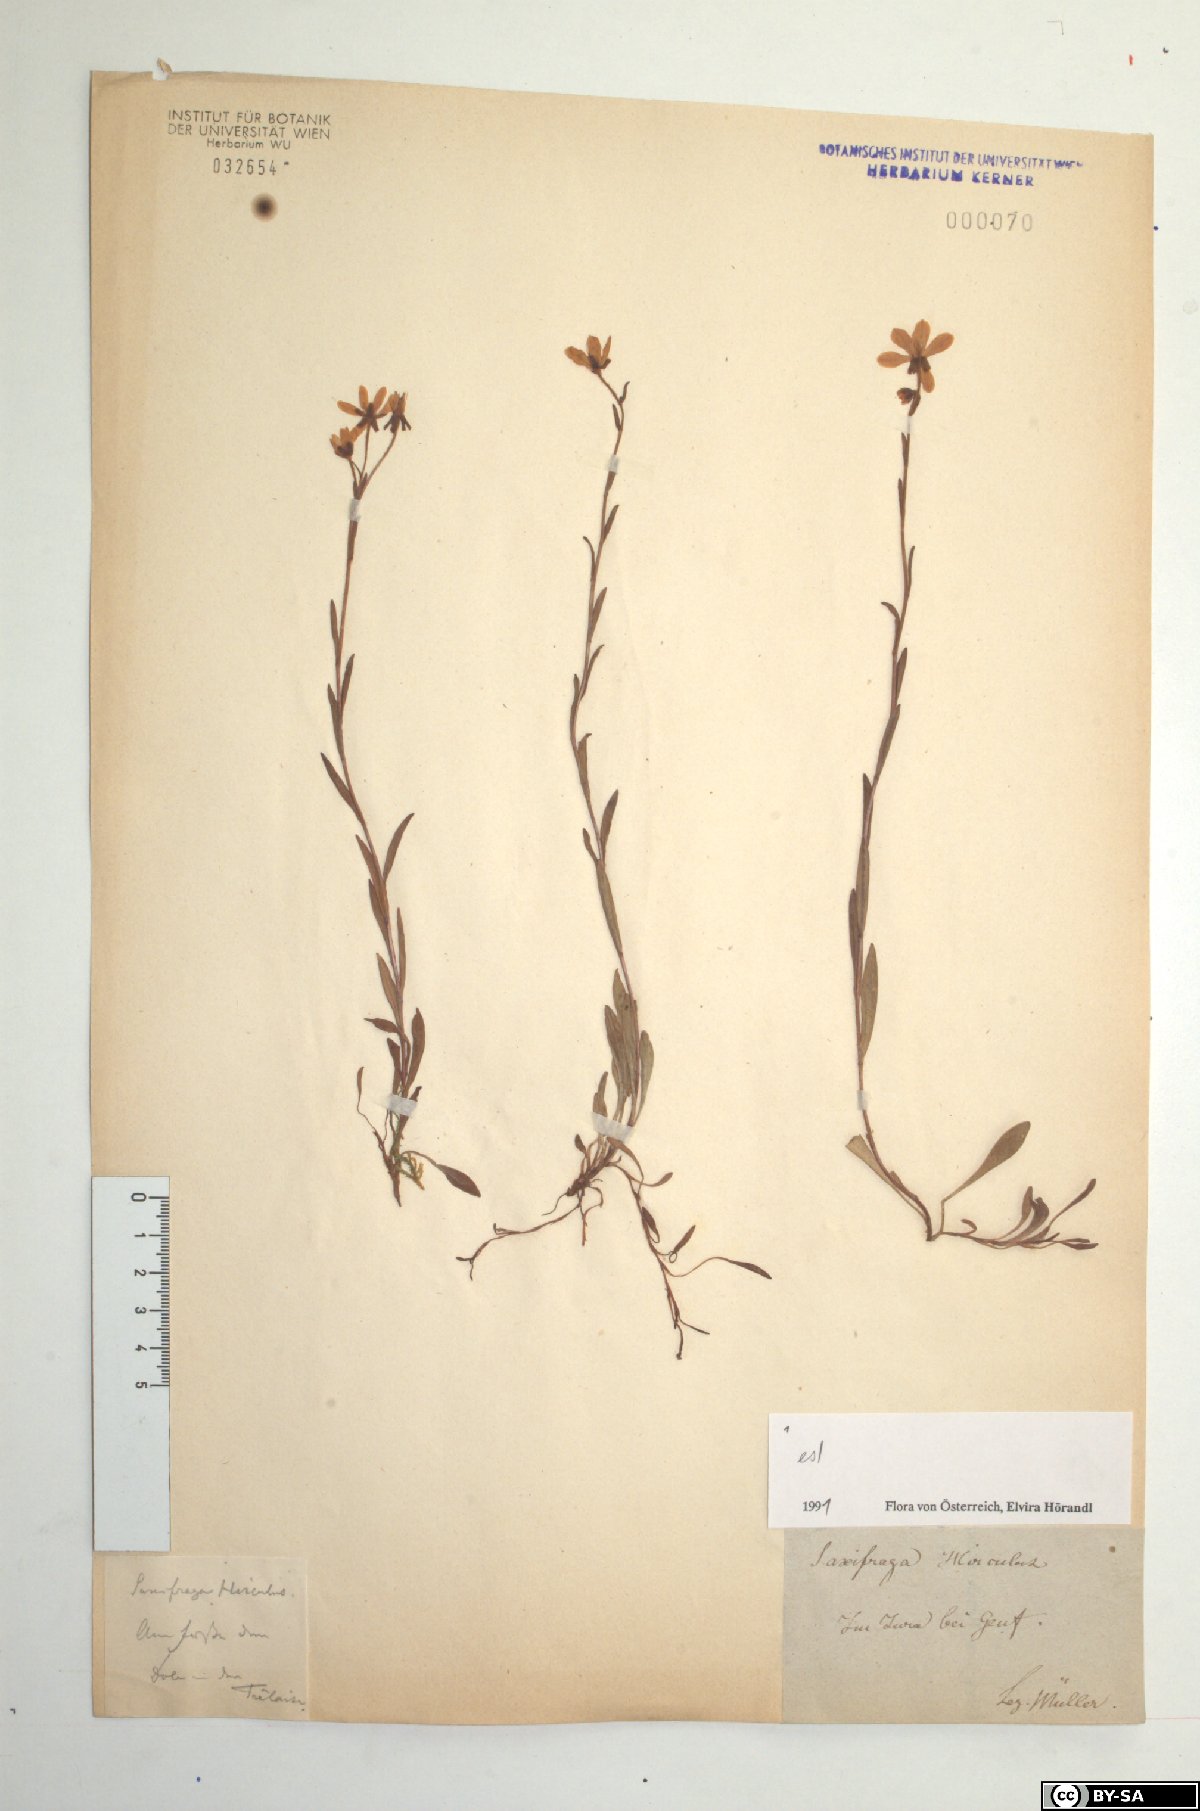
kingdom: Plantae
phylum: Tracheophyta
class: Magnoliopsida
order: Saxifragales
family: Saxifragaceae
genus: Saxifraga
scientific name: Saxifraga hirculus
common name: Yellow marsh saxifrage
